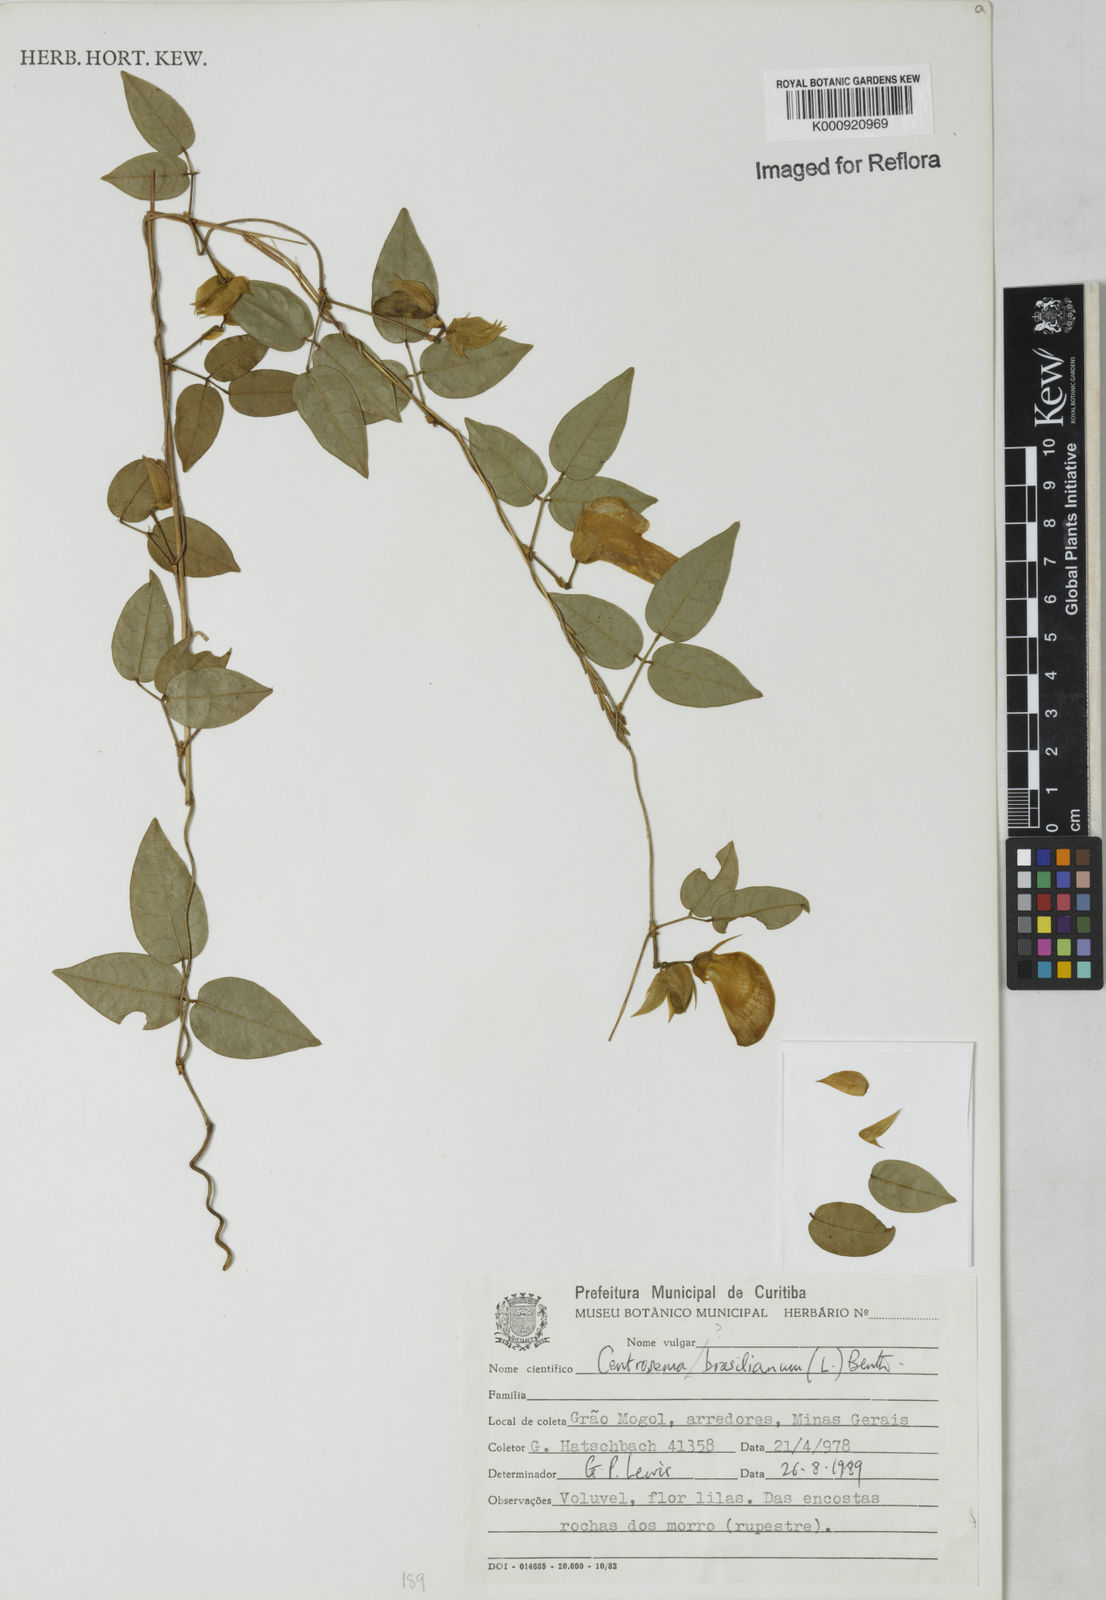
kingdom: Plantae
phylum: Tracheophyta
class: Magnoliopsida
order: Fabales
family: Fabaceae
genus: Centrosema
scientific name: Centrosema
